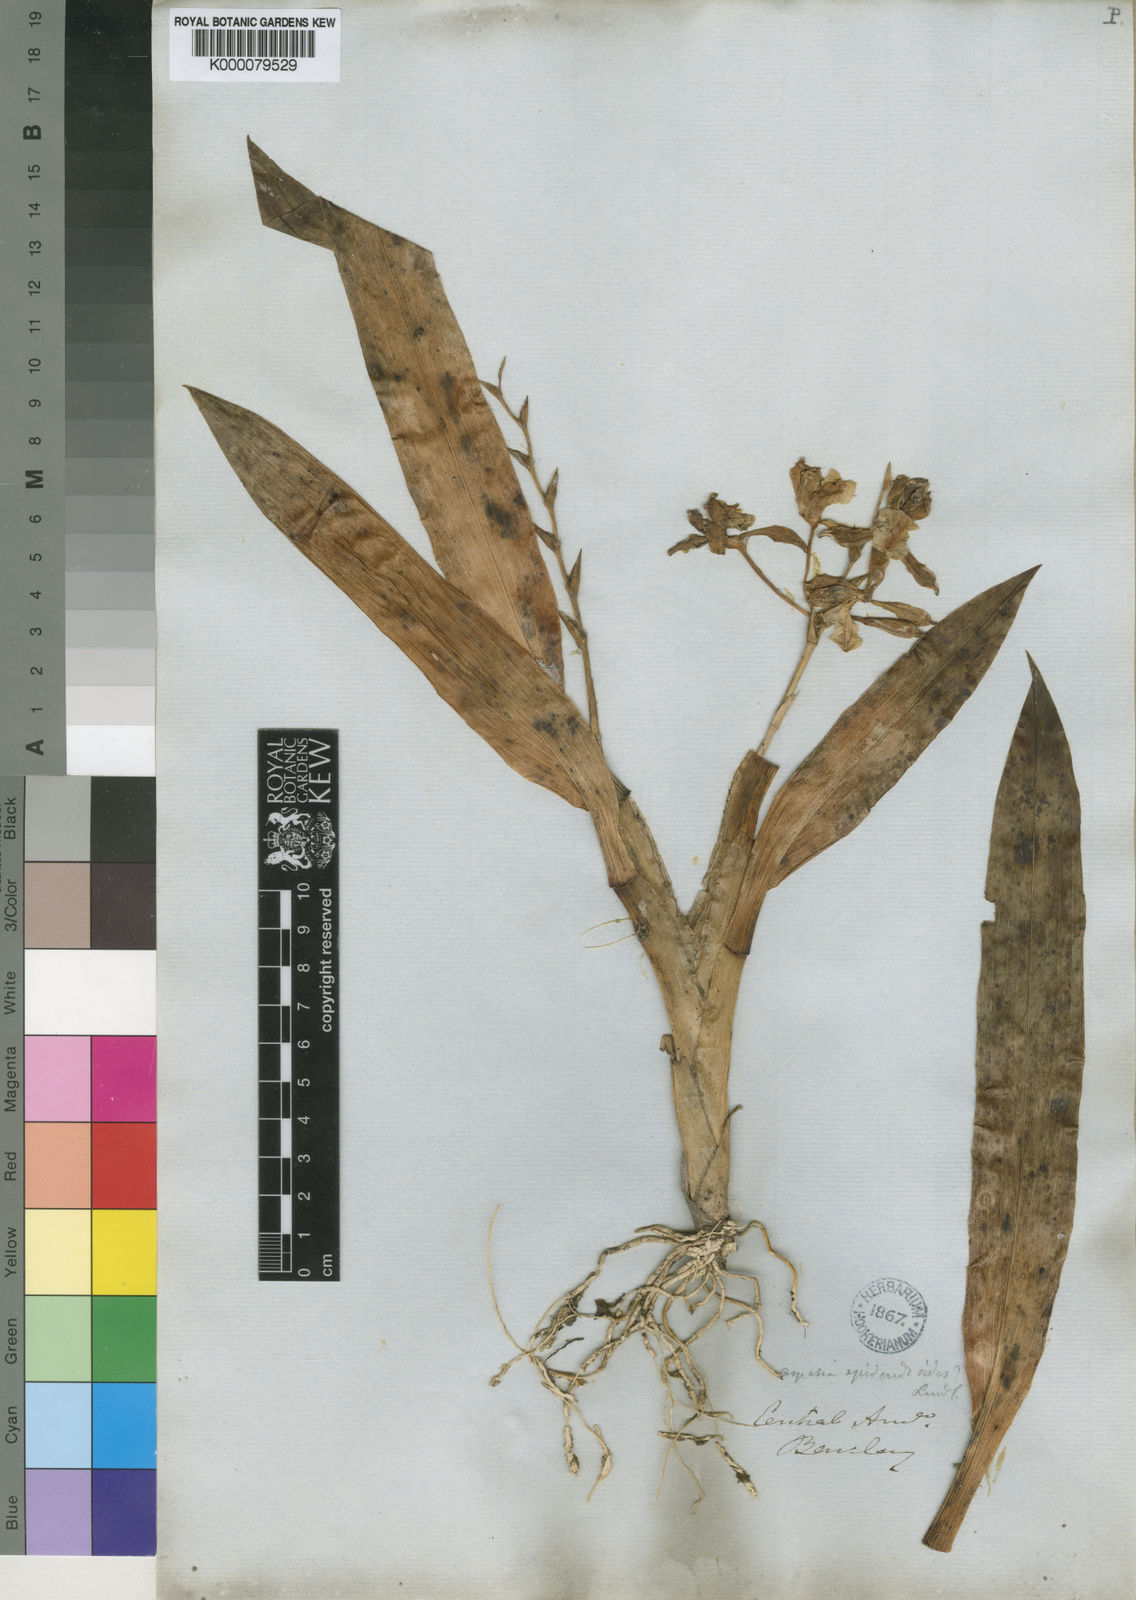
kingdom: Plantae
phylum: Tracheophyta
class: Liliopsida
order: Asparagales
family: Orchidaceae
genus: Aspasia
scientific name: Aspasia epidendroides
